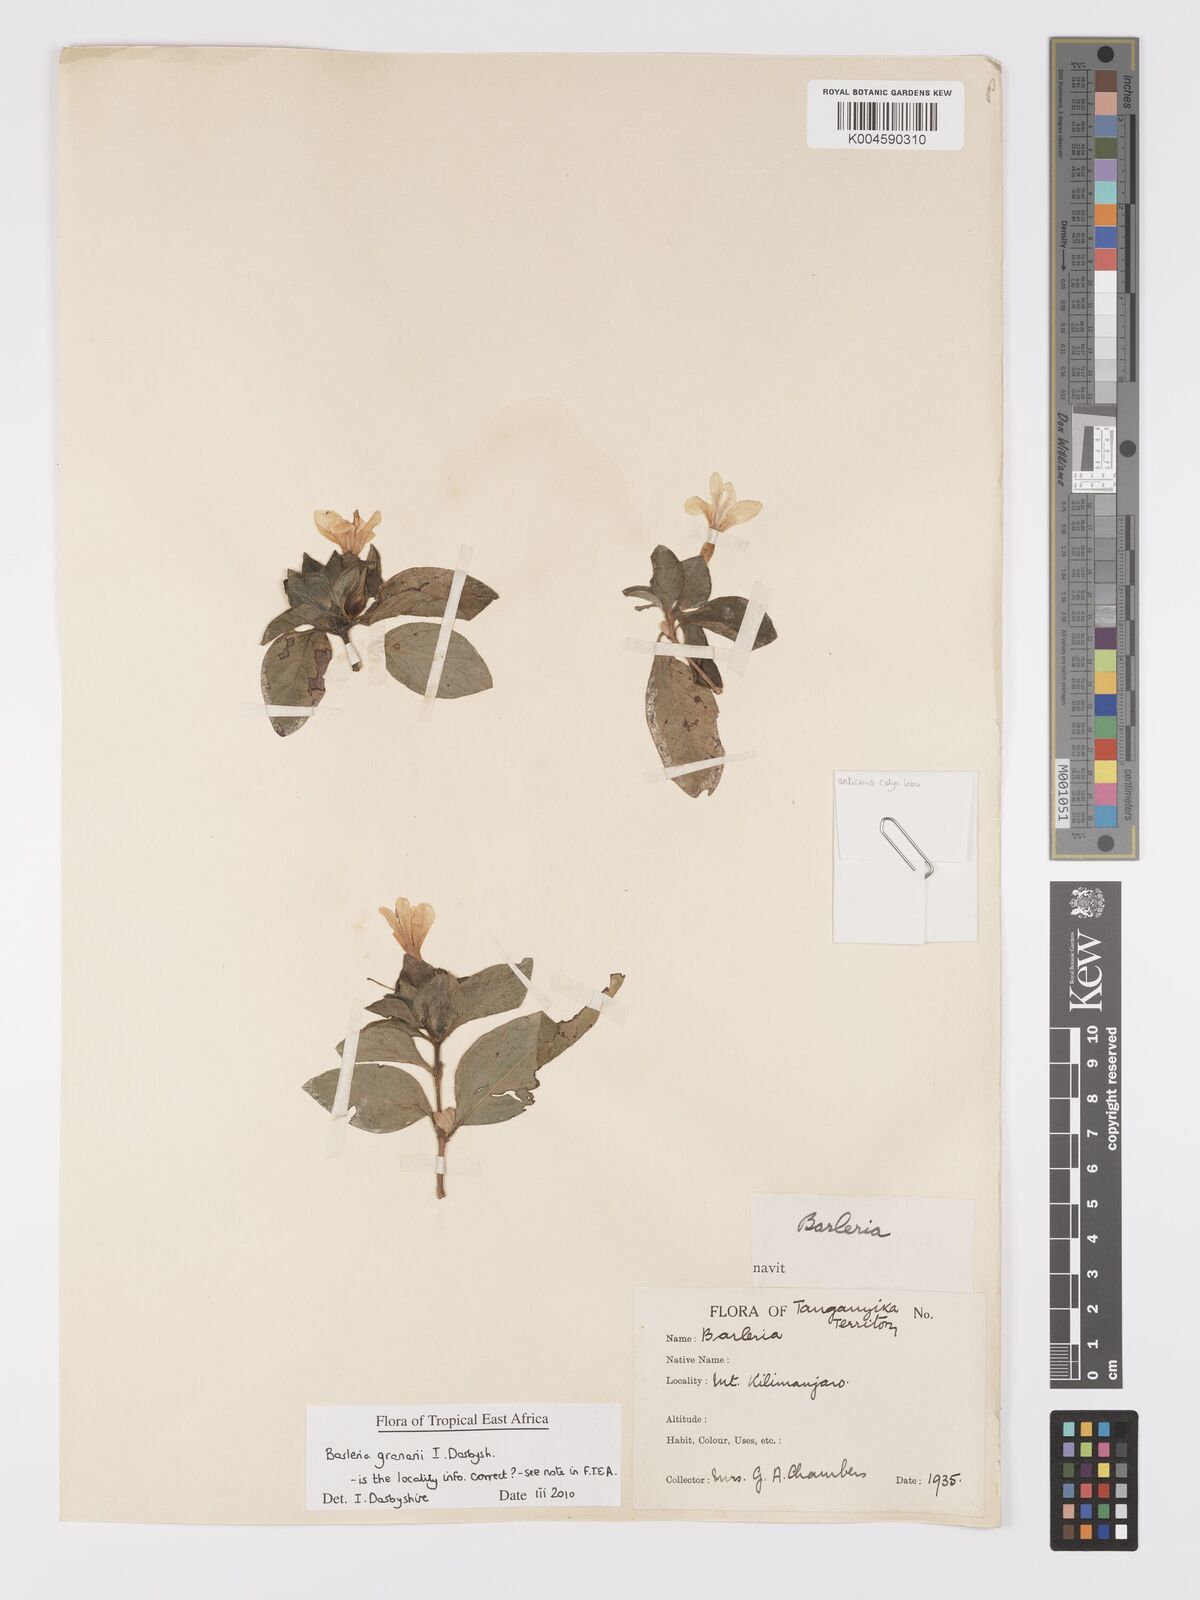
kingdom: Plantae
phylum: Tracheophyta
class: Magnoliopsida
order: Lamiales
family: Acanthaceae
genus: Barleria
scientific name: Barleria granarii
